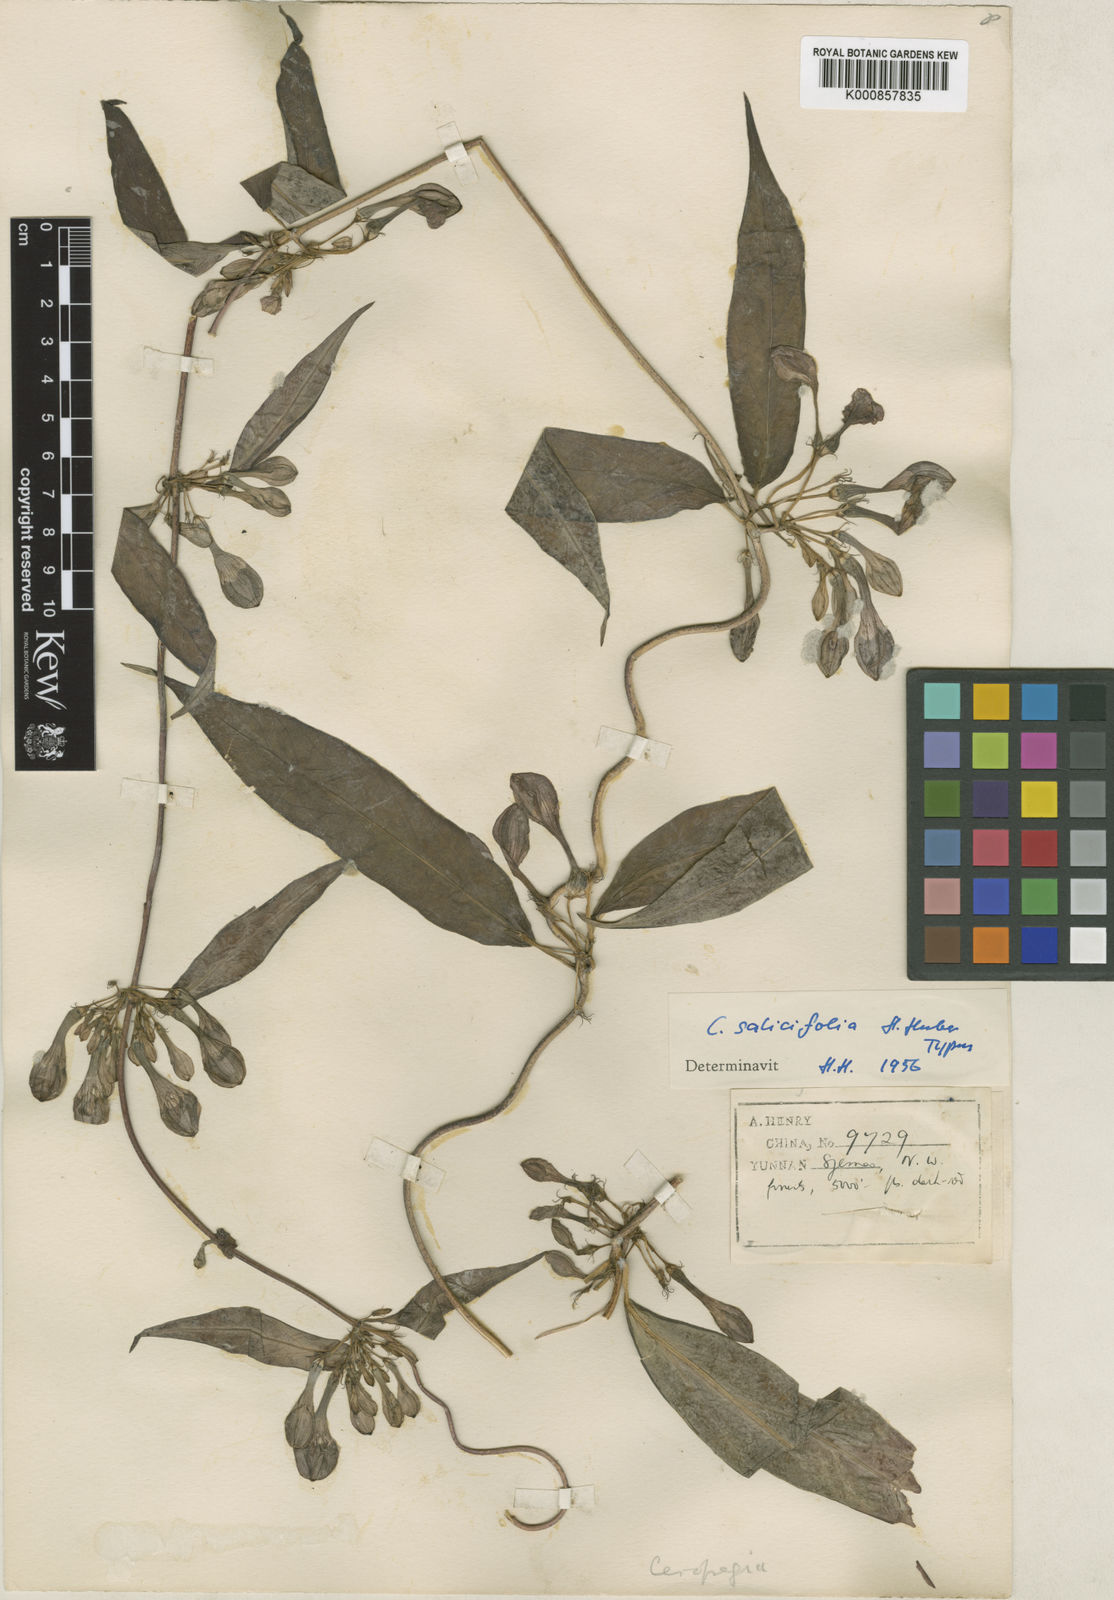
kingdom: Plantae
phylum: Tracheophyta
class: Magnoliopsida
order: Gentianales
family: Apocynaceae
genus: Ceropegia
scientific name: Ceropegia salicifolia
